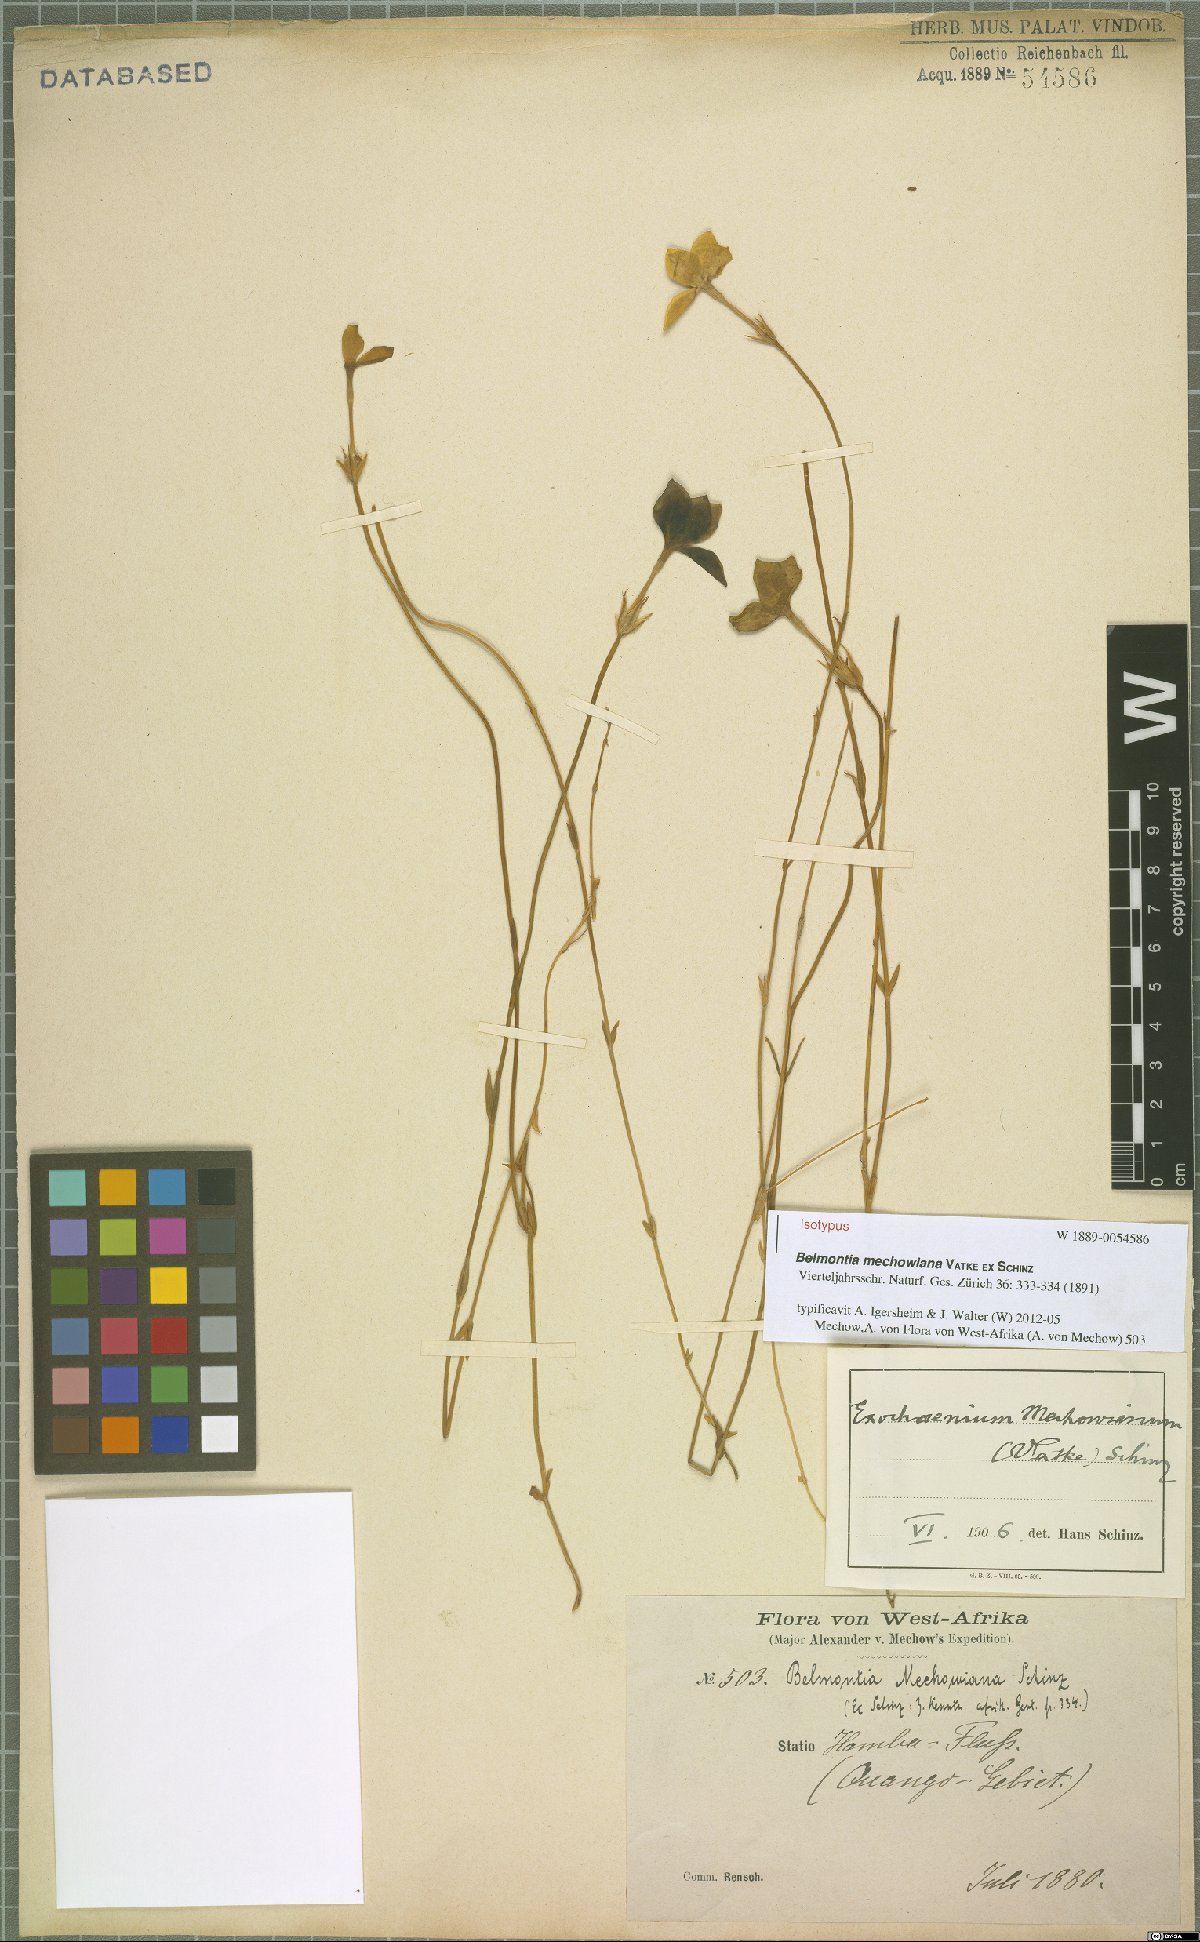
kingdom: Plantae
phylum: Tracheophyta
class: Magnoliopsida
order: Gentianales
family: Gentianaceae
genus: Exochaenium
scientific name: Exochaenium teuszii
